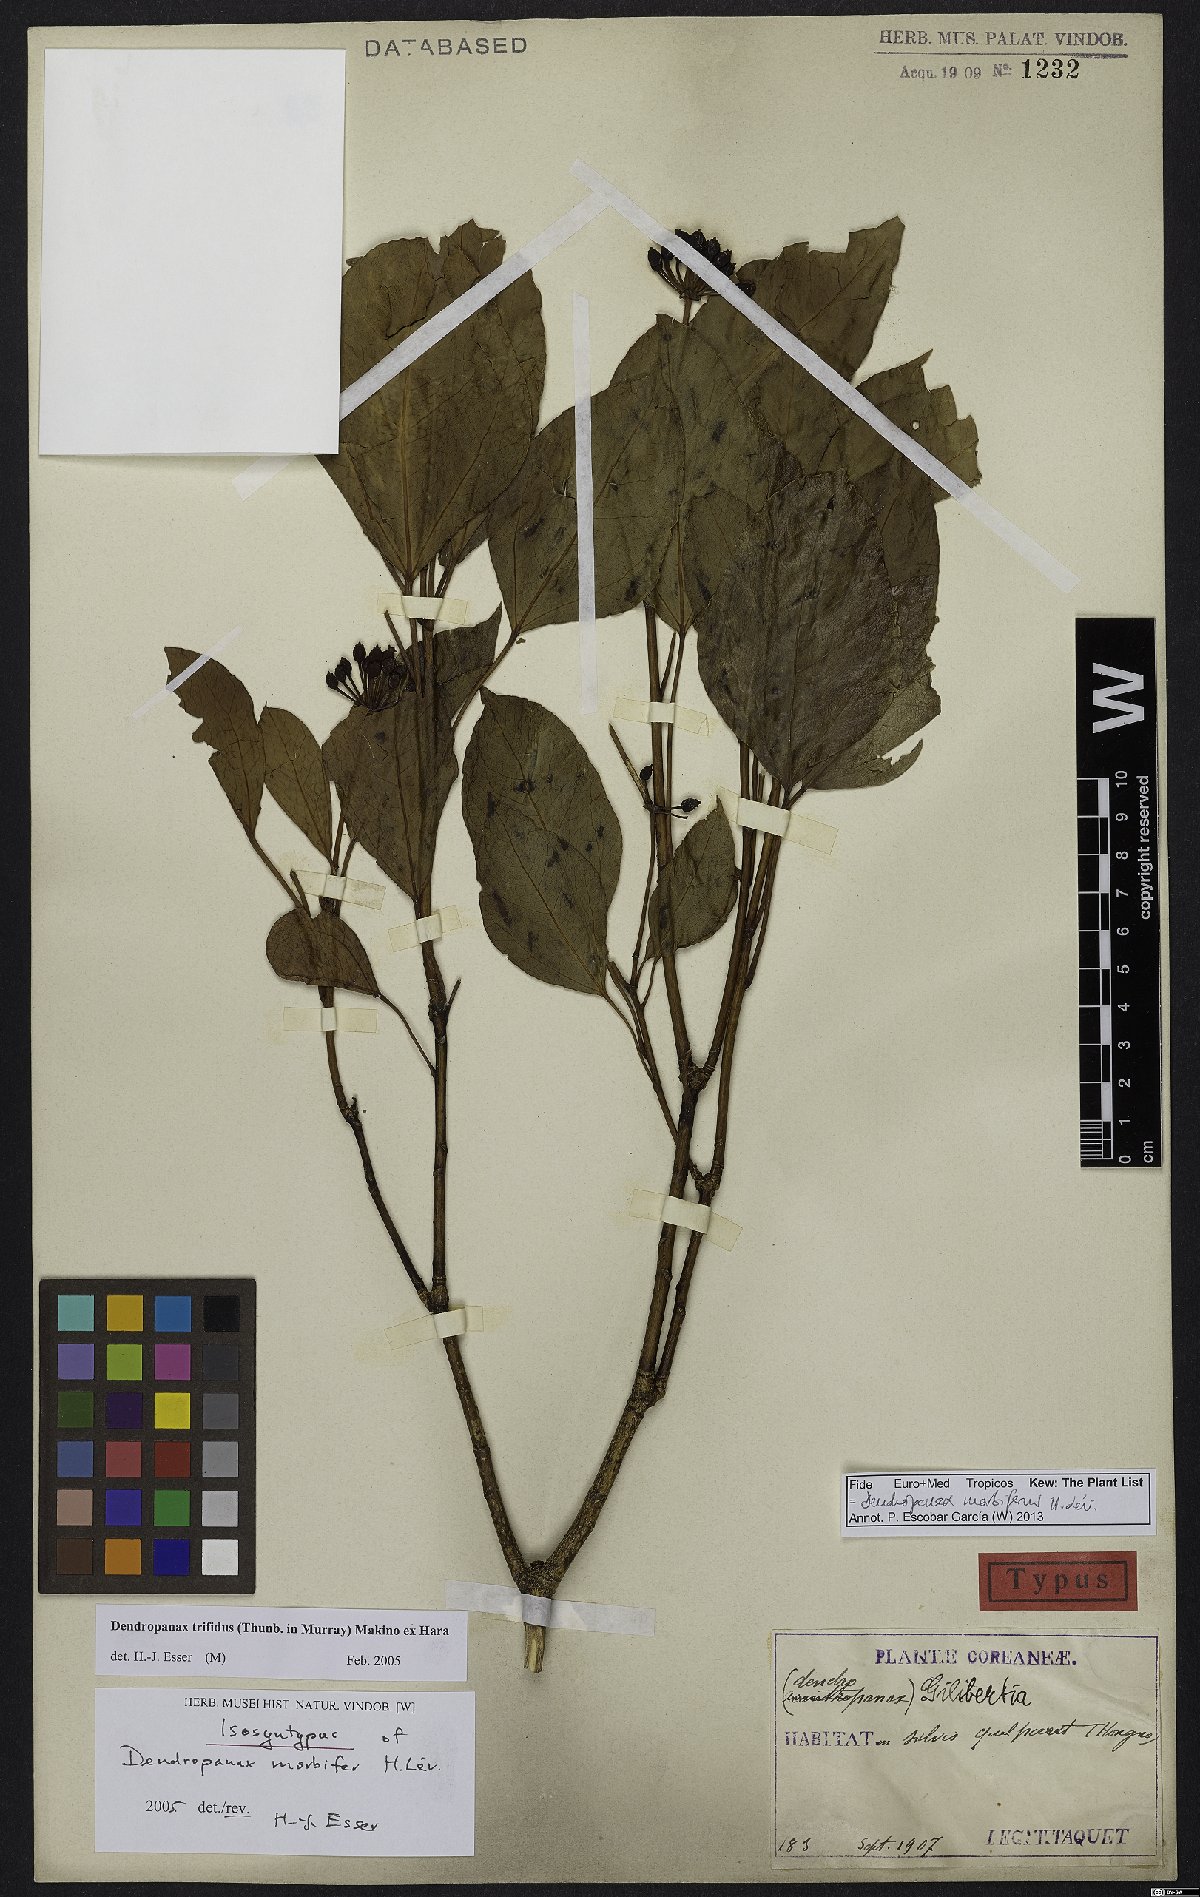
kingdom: Plantae
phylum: Tracheophyta
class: Magnoliopsida
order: Apiales
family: Araliaceae
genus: Dendropanax
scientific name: Dendropanax morbiferus
